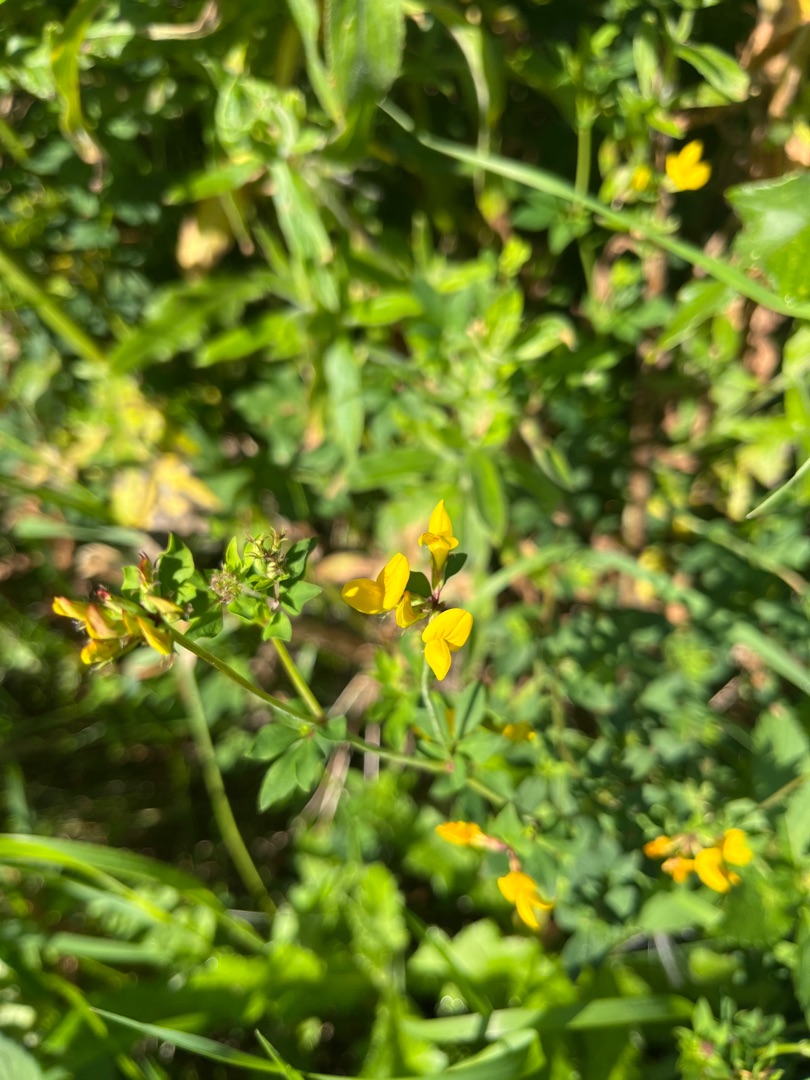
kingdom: Plantae
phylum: Tracheophyta
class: Magnoliopsida
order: Fabales
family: Fabaceae
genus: Lotus
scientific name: Lotus pedunculatus
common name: Sump-kællingetand
